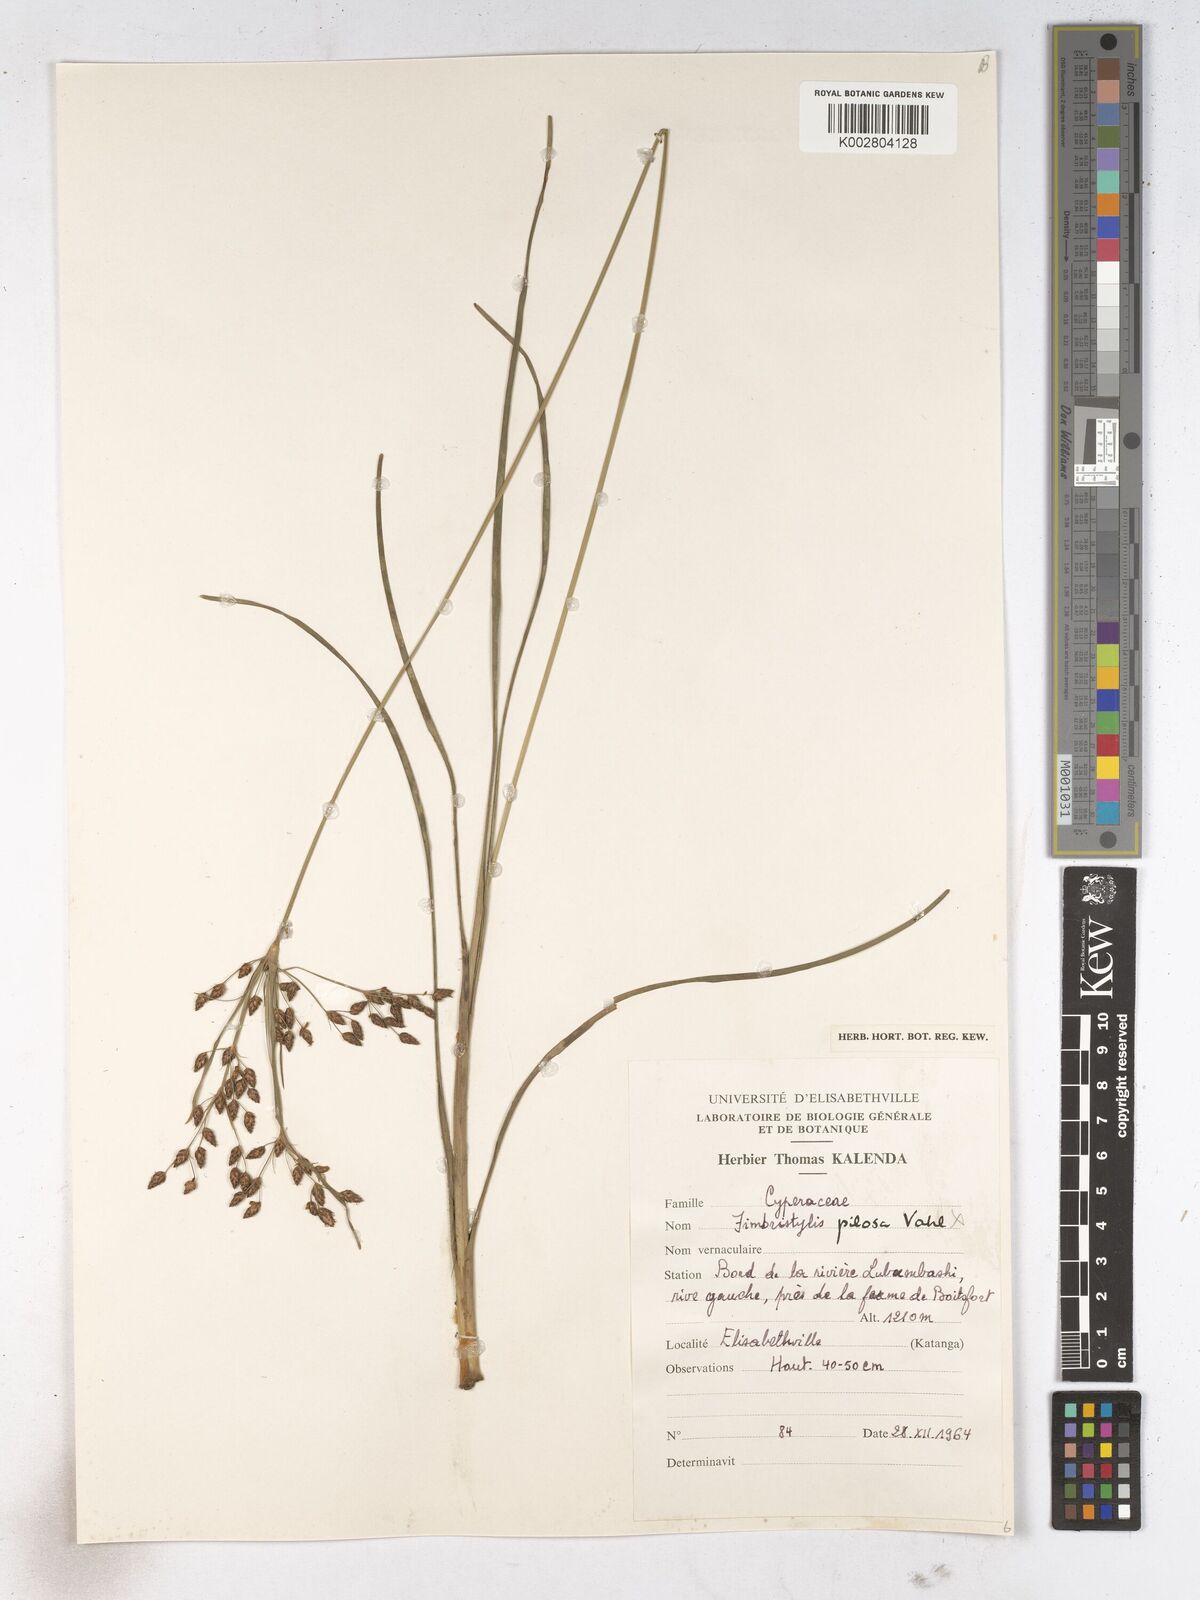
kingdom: Plantae
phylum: Tracheophyta
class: Liliopsida
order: Poales
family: Cyperaceae
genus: Fimbristylis
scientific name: Fimbristylis dichotoma
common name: Forked fimbry
